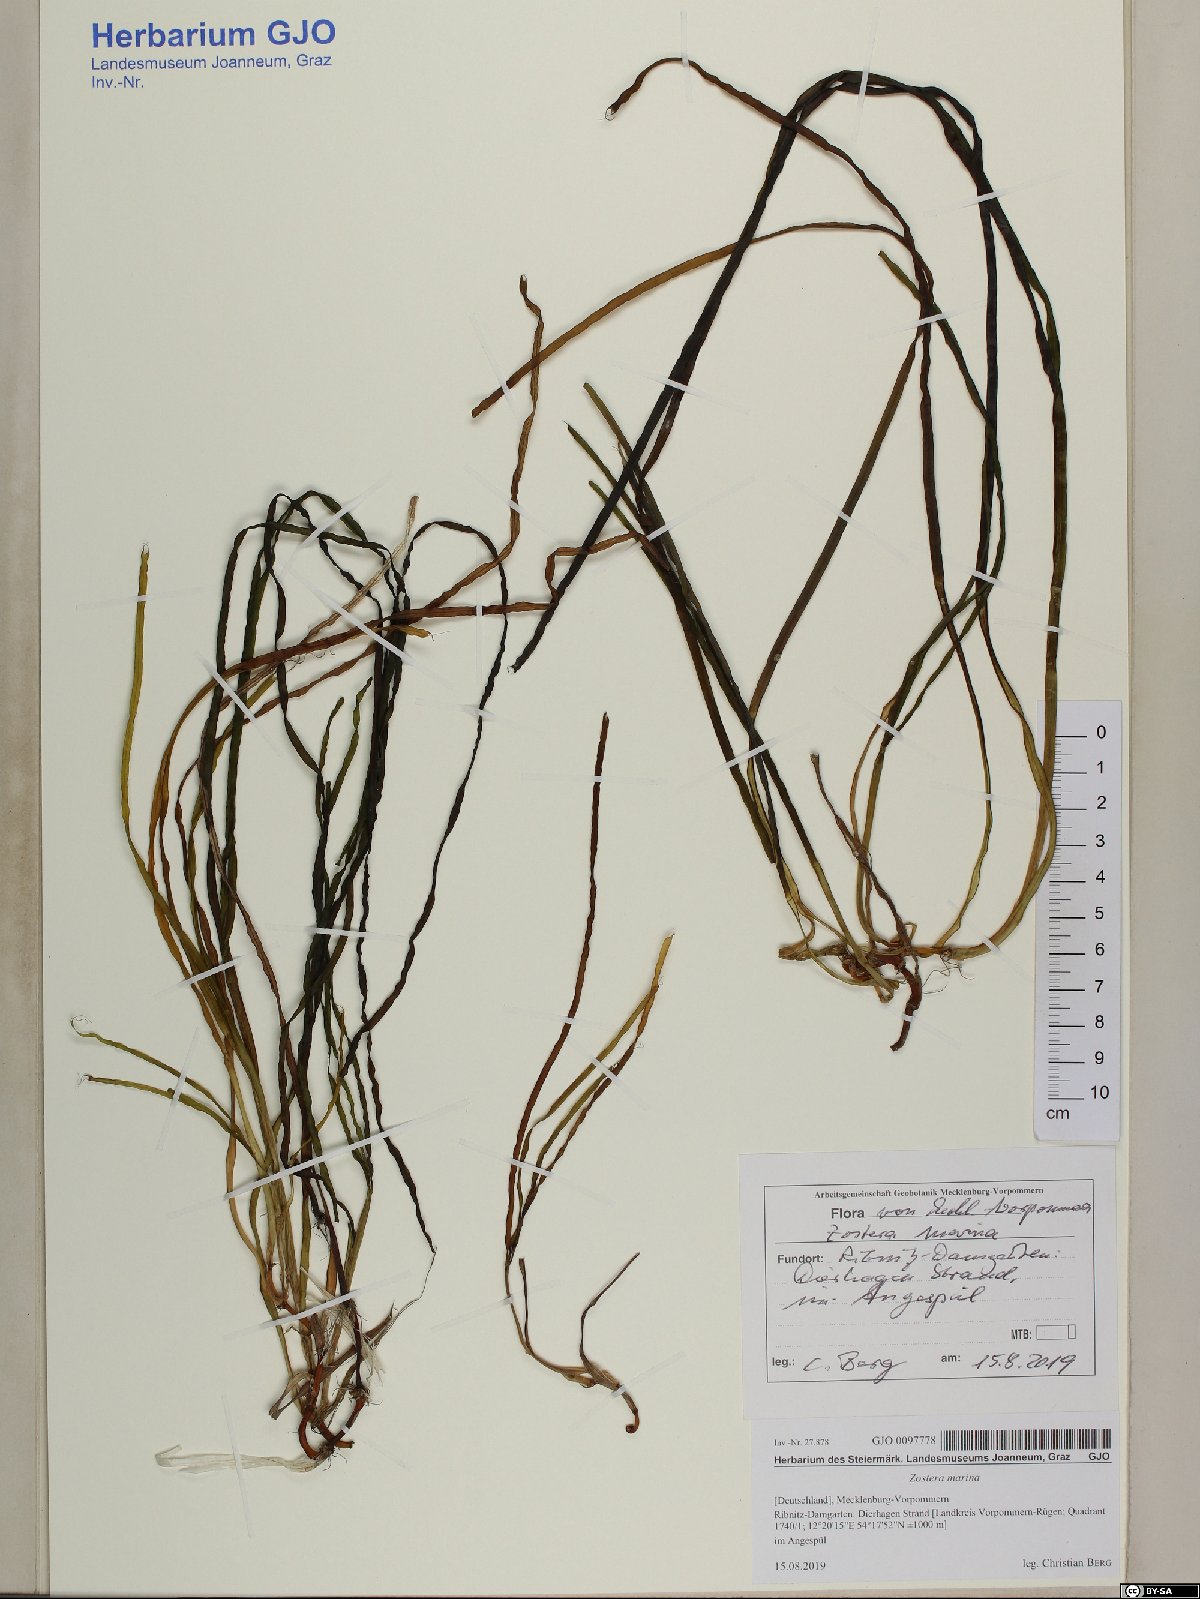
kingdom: Plantae
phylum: Tracheophyta
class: Liliopsida
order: Alismatales
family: Zosteraceae
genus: Zostera
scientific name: Zostera marina
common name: Eelgrass
